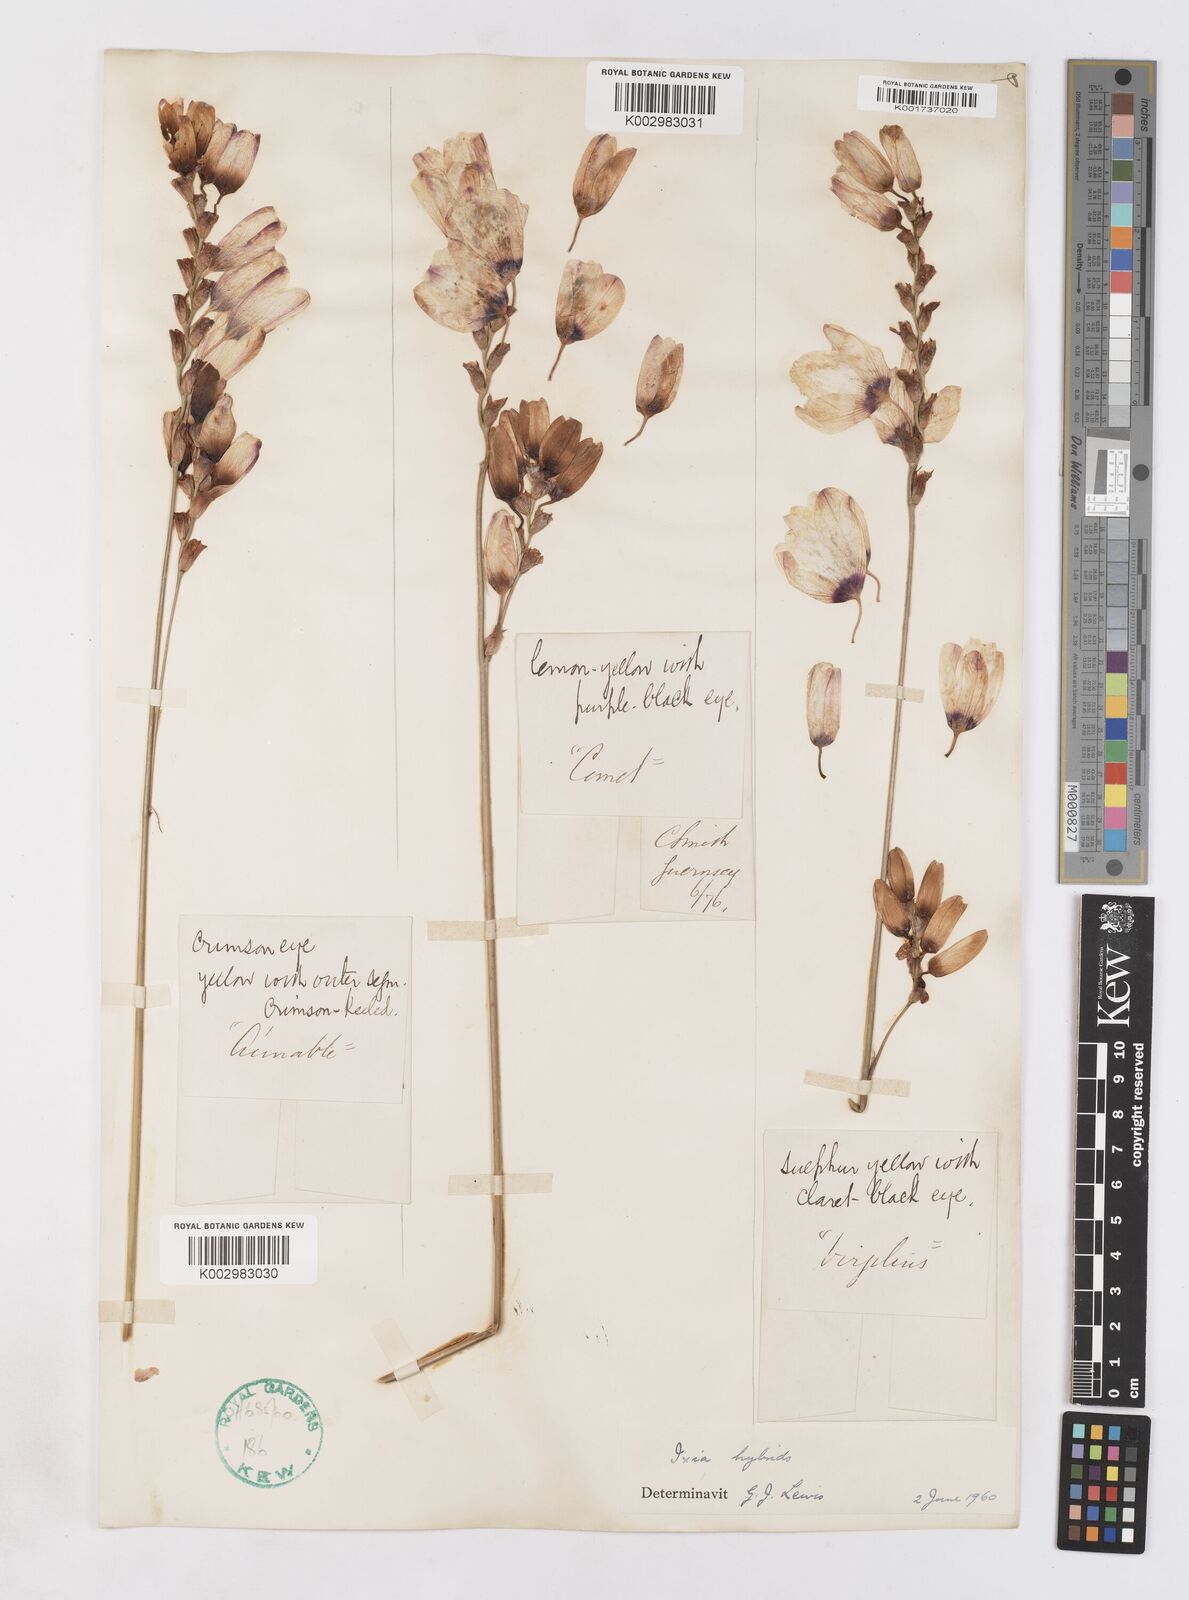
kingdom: Plantae
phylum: Tracheophyta
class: Liliopsida
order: Asparagales
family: Iridaceae
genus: Ixia
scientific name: Ixia polystachya
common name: White-and-yellow-flower cornlily
